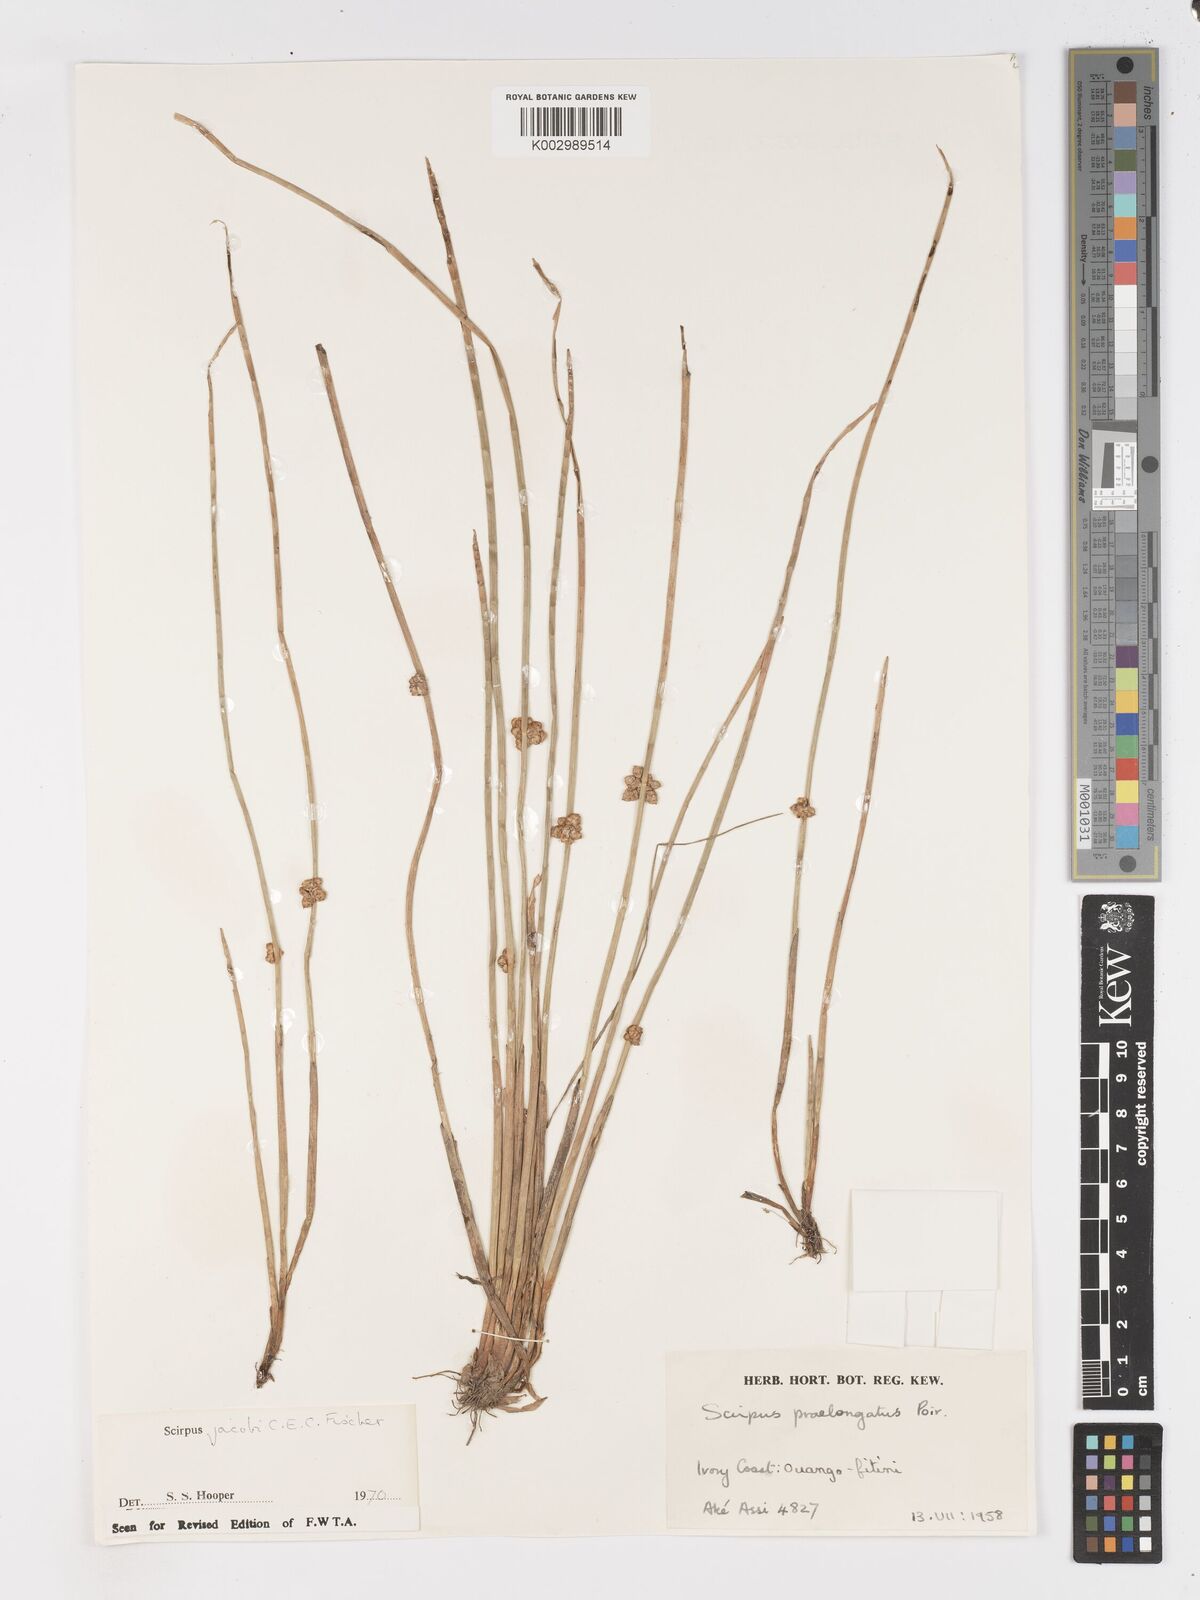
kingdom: Plantae
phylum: Tracheophyta
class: Liliopsida
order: Poales
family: Cyperaceae
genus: Schoenoplectiella
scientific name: Schoenoplectiella senegalensis
